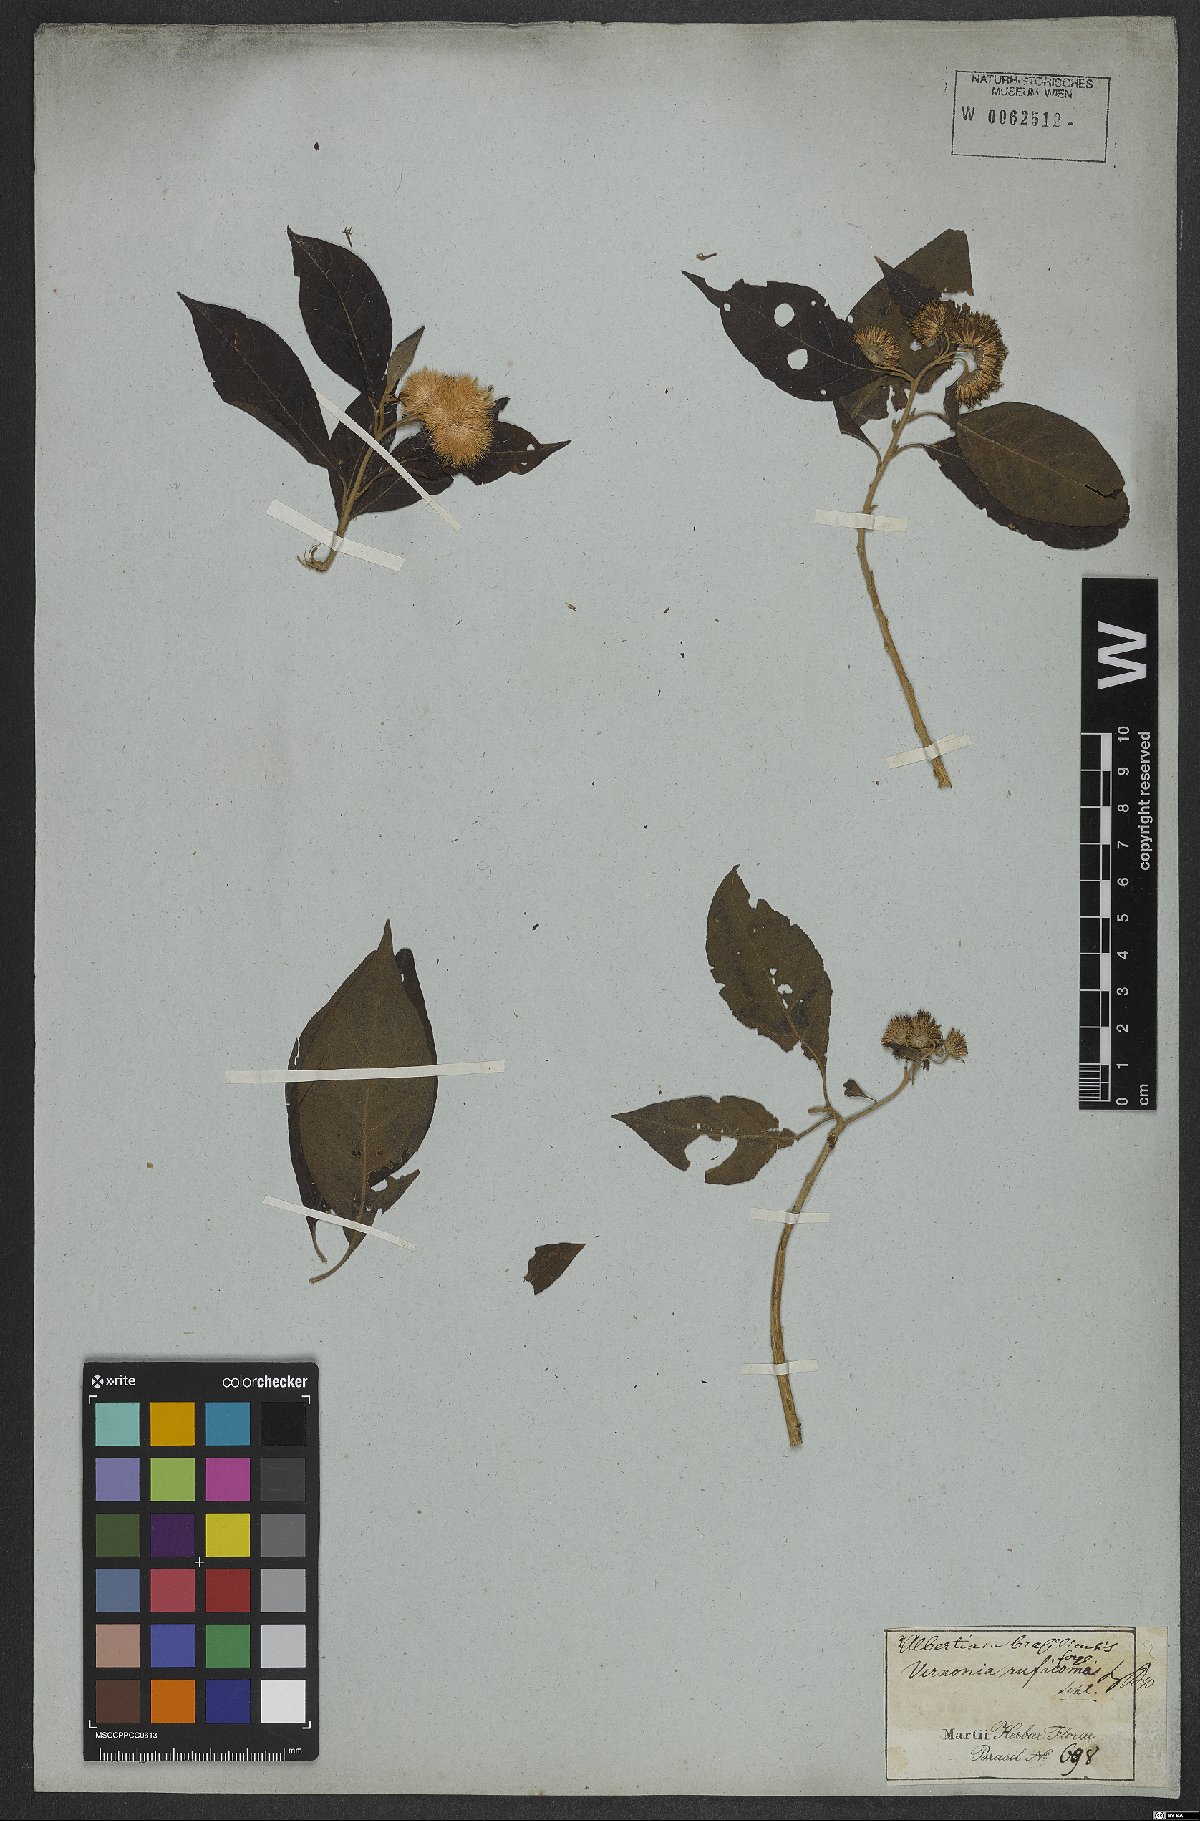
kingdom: Plantae
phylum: Tracheophyta
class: Magnoliopsida
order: Asterales
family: Asteraceae
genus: Albertinia
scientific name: Albertinia brasiliensis
